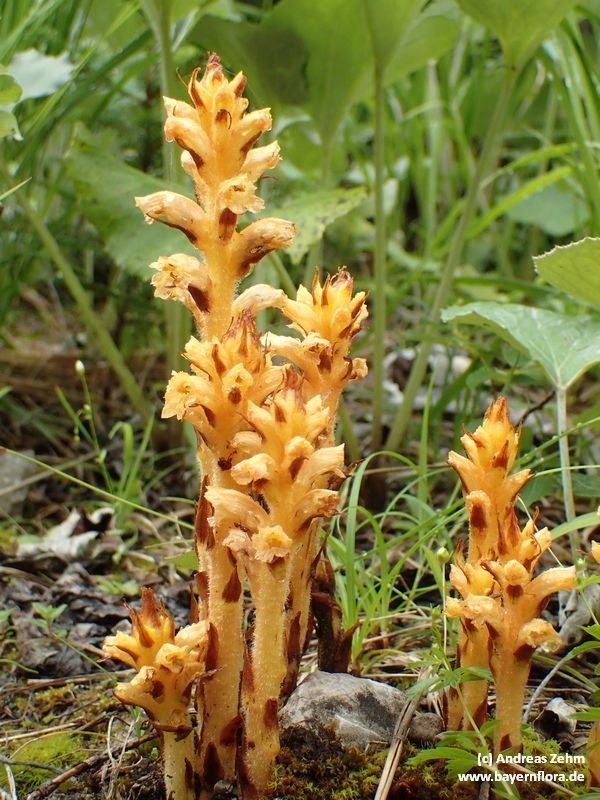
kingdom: Plantae
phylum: Tracheophyta
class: Magnoliopsida
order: Lamiales
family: Orobanchaceae
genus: Orobanche
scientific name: Orobanche flava
